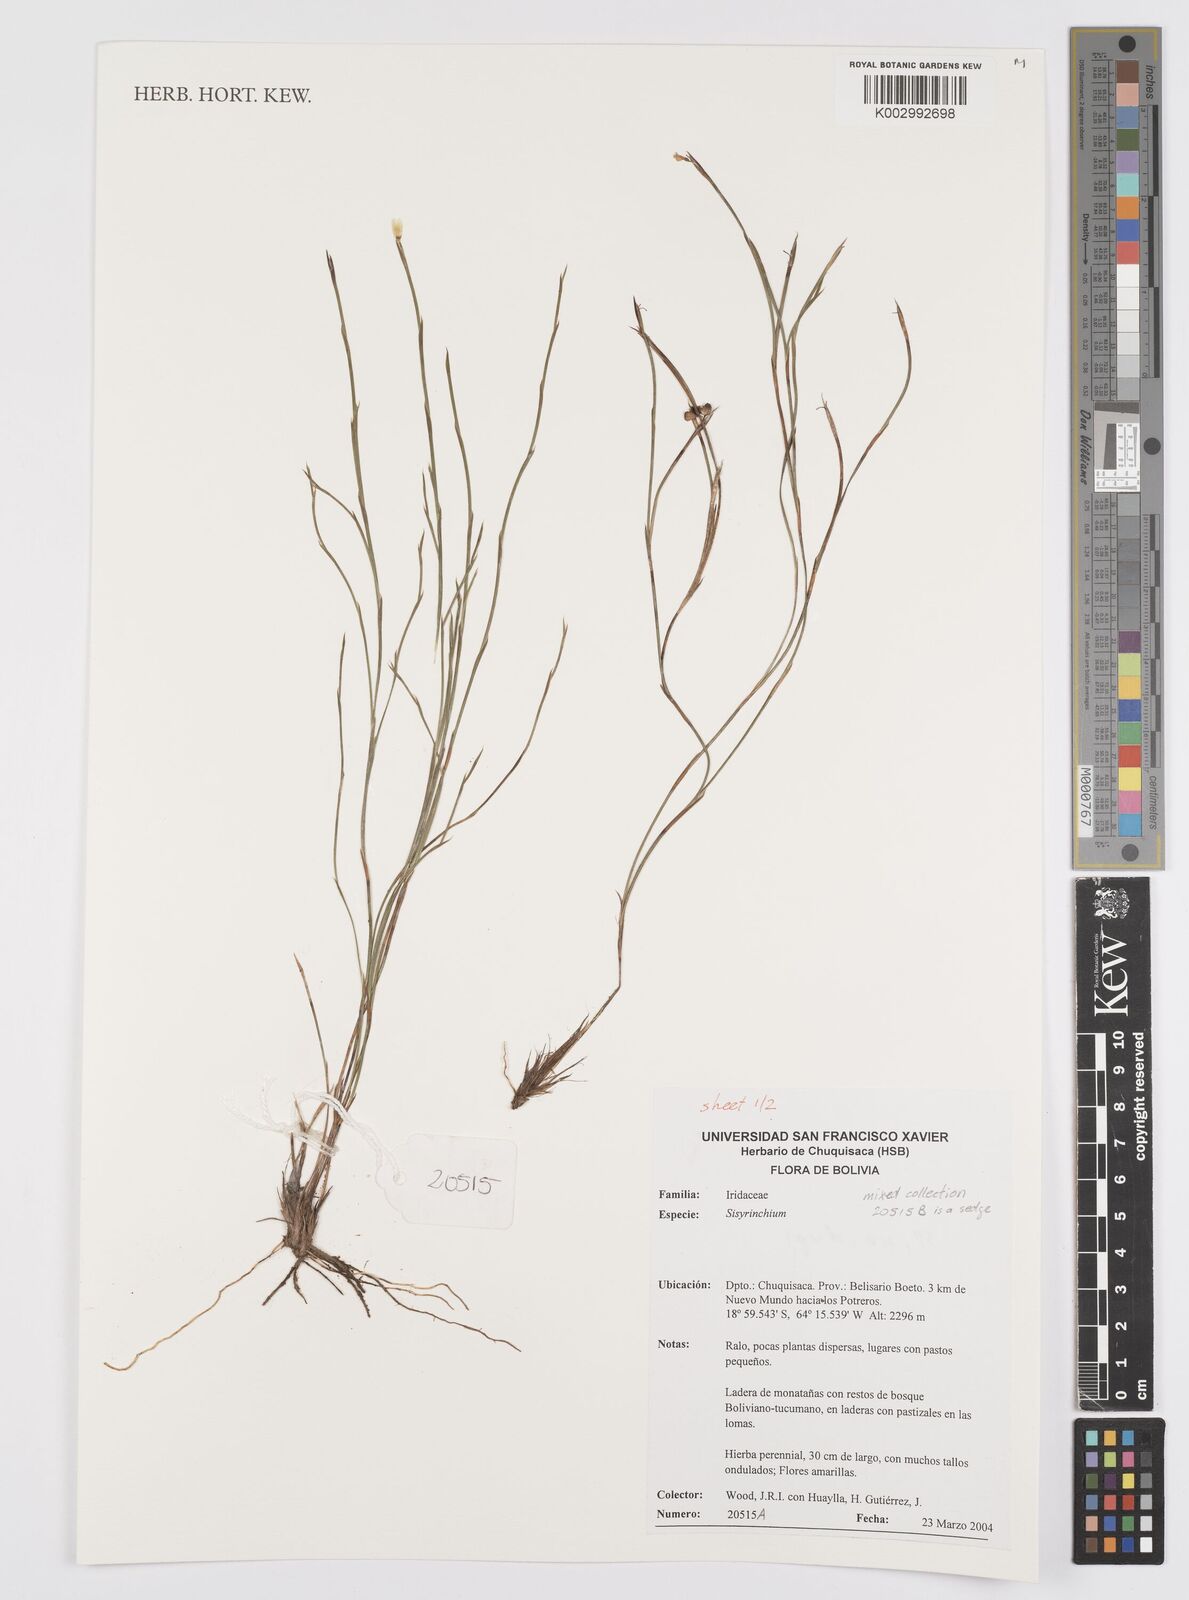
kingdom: Plantae
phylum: Tracheophyta
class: Liliopsida
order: Asparagales
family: Iridaceae
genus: Sisyrinchium
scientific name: Sisyrinchium
